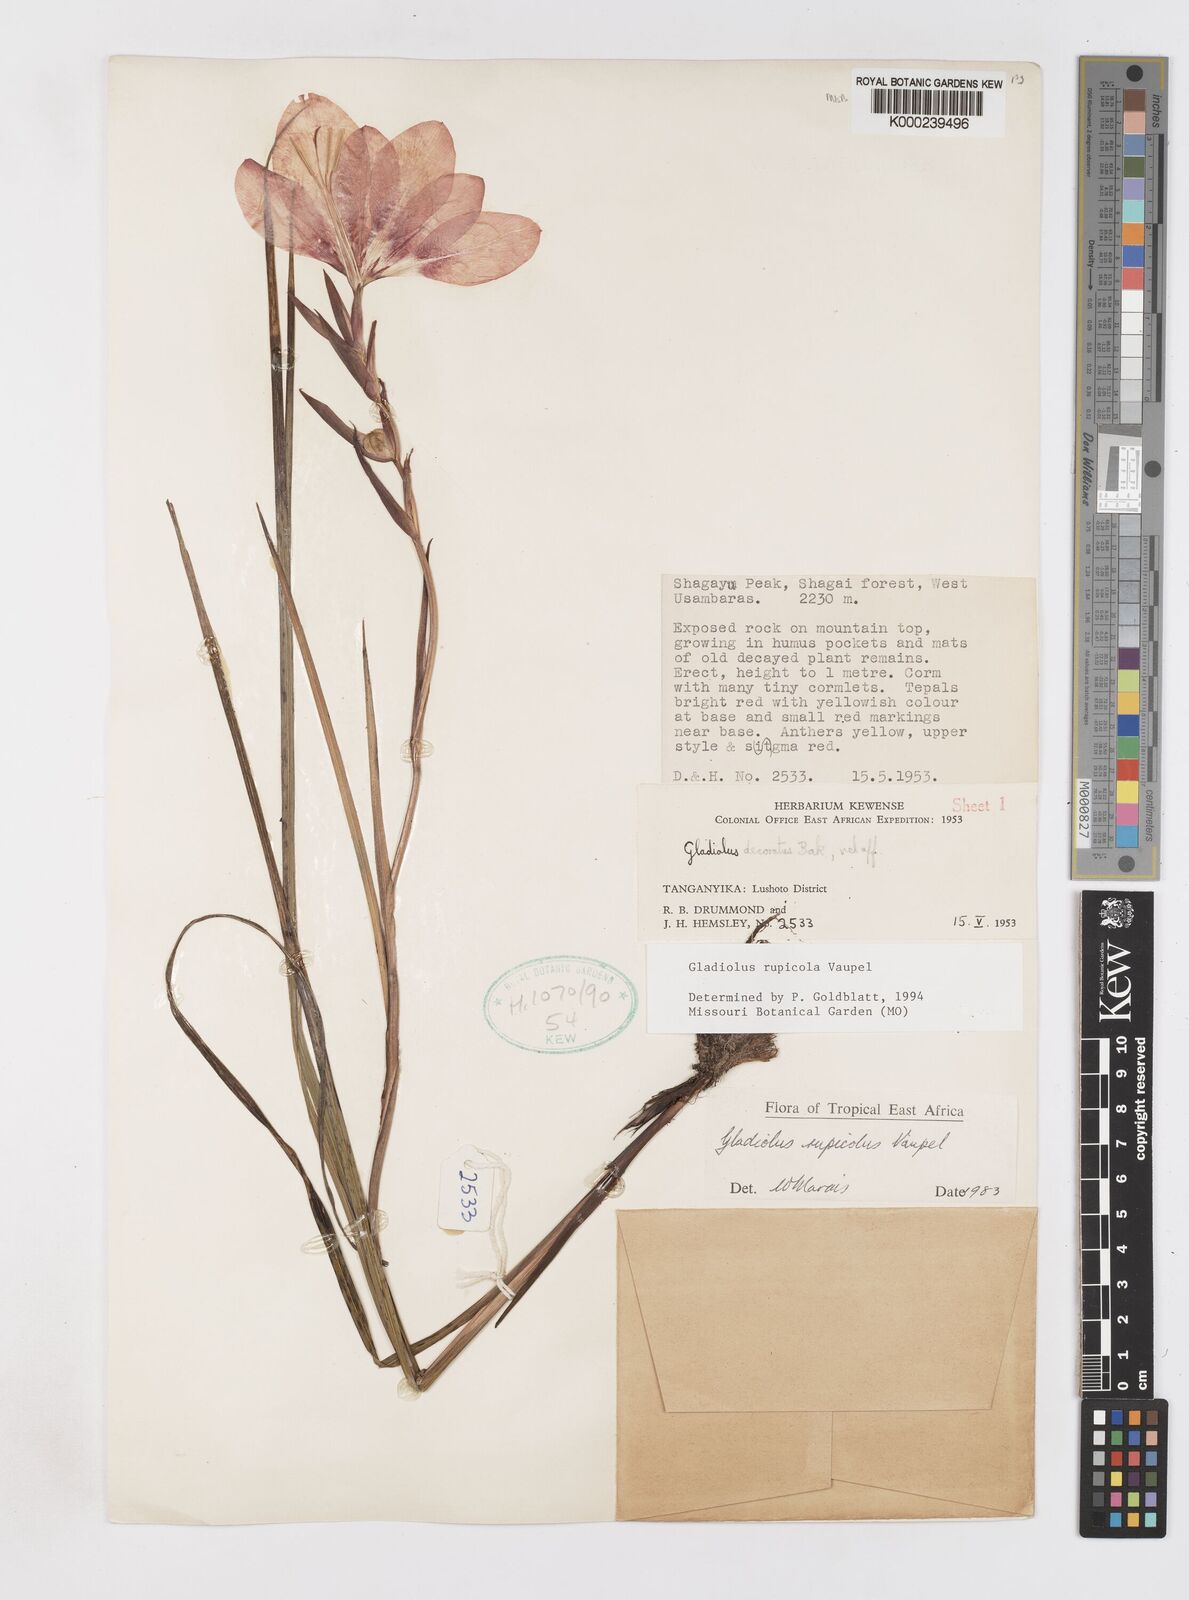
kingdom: Plantae
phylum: Tracheophyta
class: Liliopsida
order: Asparagales
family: Iridaceae
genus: Gladiolus
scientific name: Gladiolus rupicola
